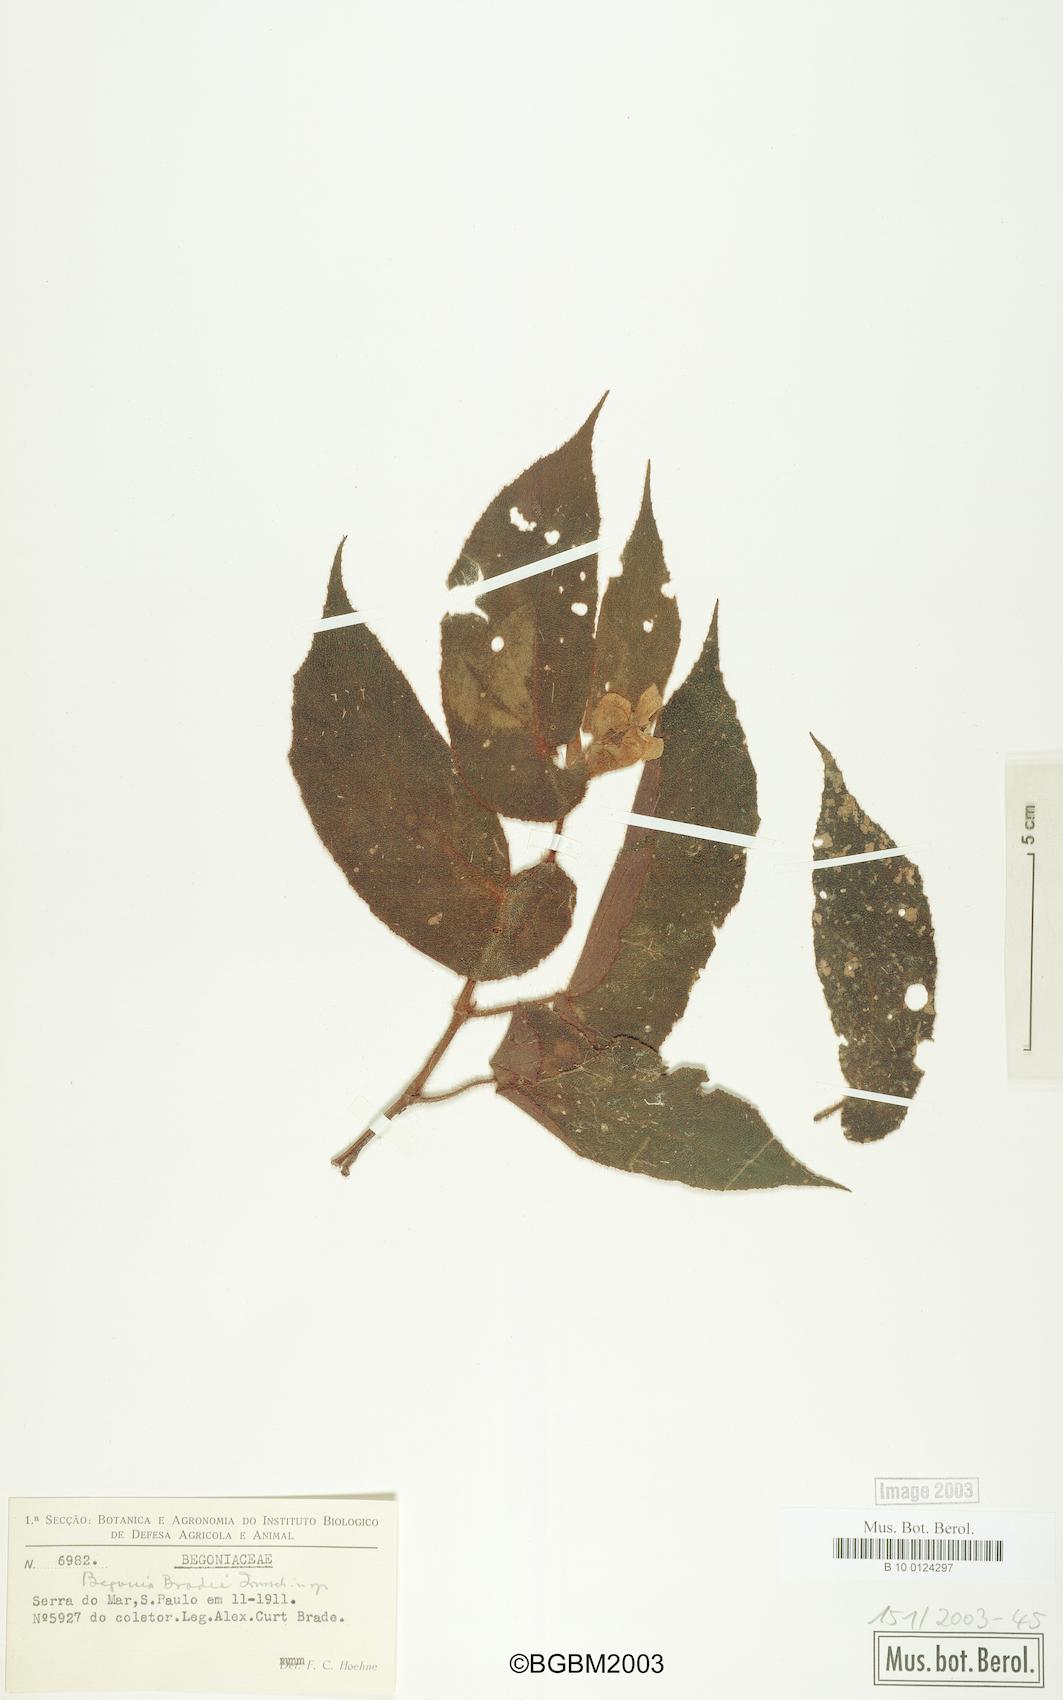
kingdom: Plantae
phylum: Tracheophyta
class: Magnoliopsida
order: Cucurbitales
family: Begoniaceae
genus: Begonia
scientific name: Begonia bradei
